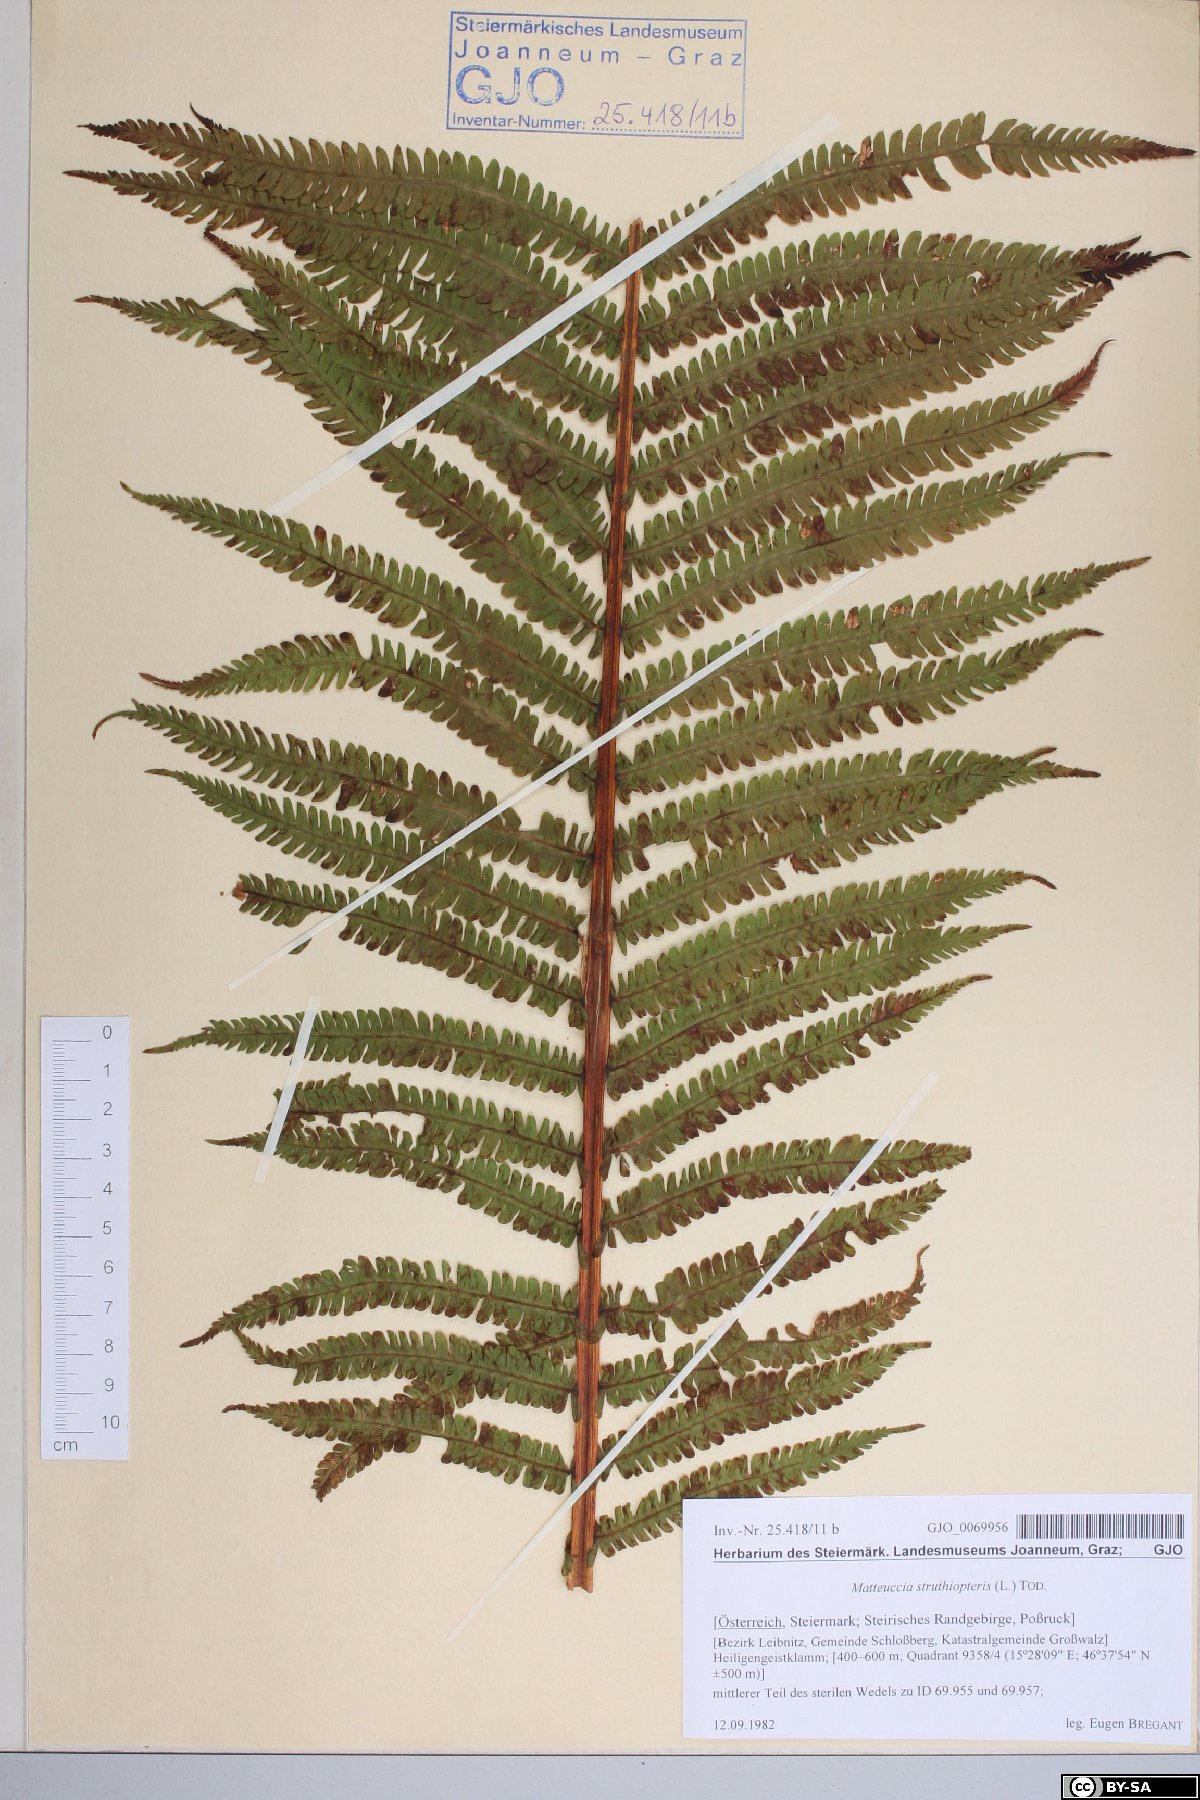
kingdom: Plantae
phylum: Tracheophyta
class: Polypodiopsida
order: Polypodiales
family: Onocleaceae
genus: Matteuccia
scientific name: Matteuccia struthiopteris
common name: Ostrich fern
